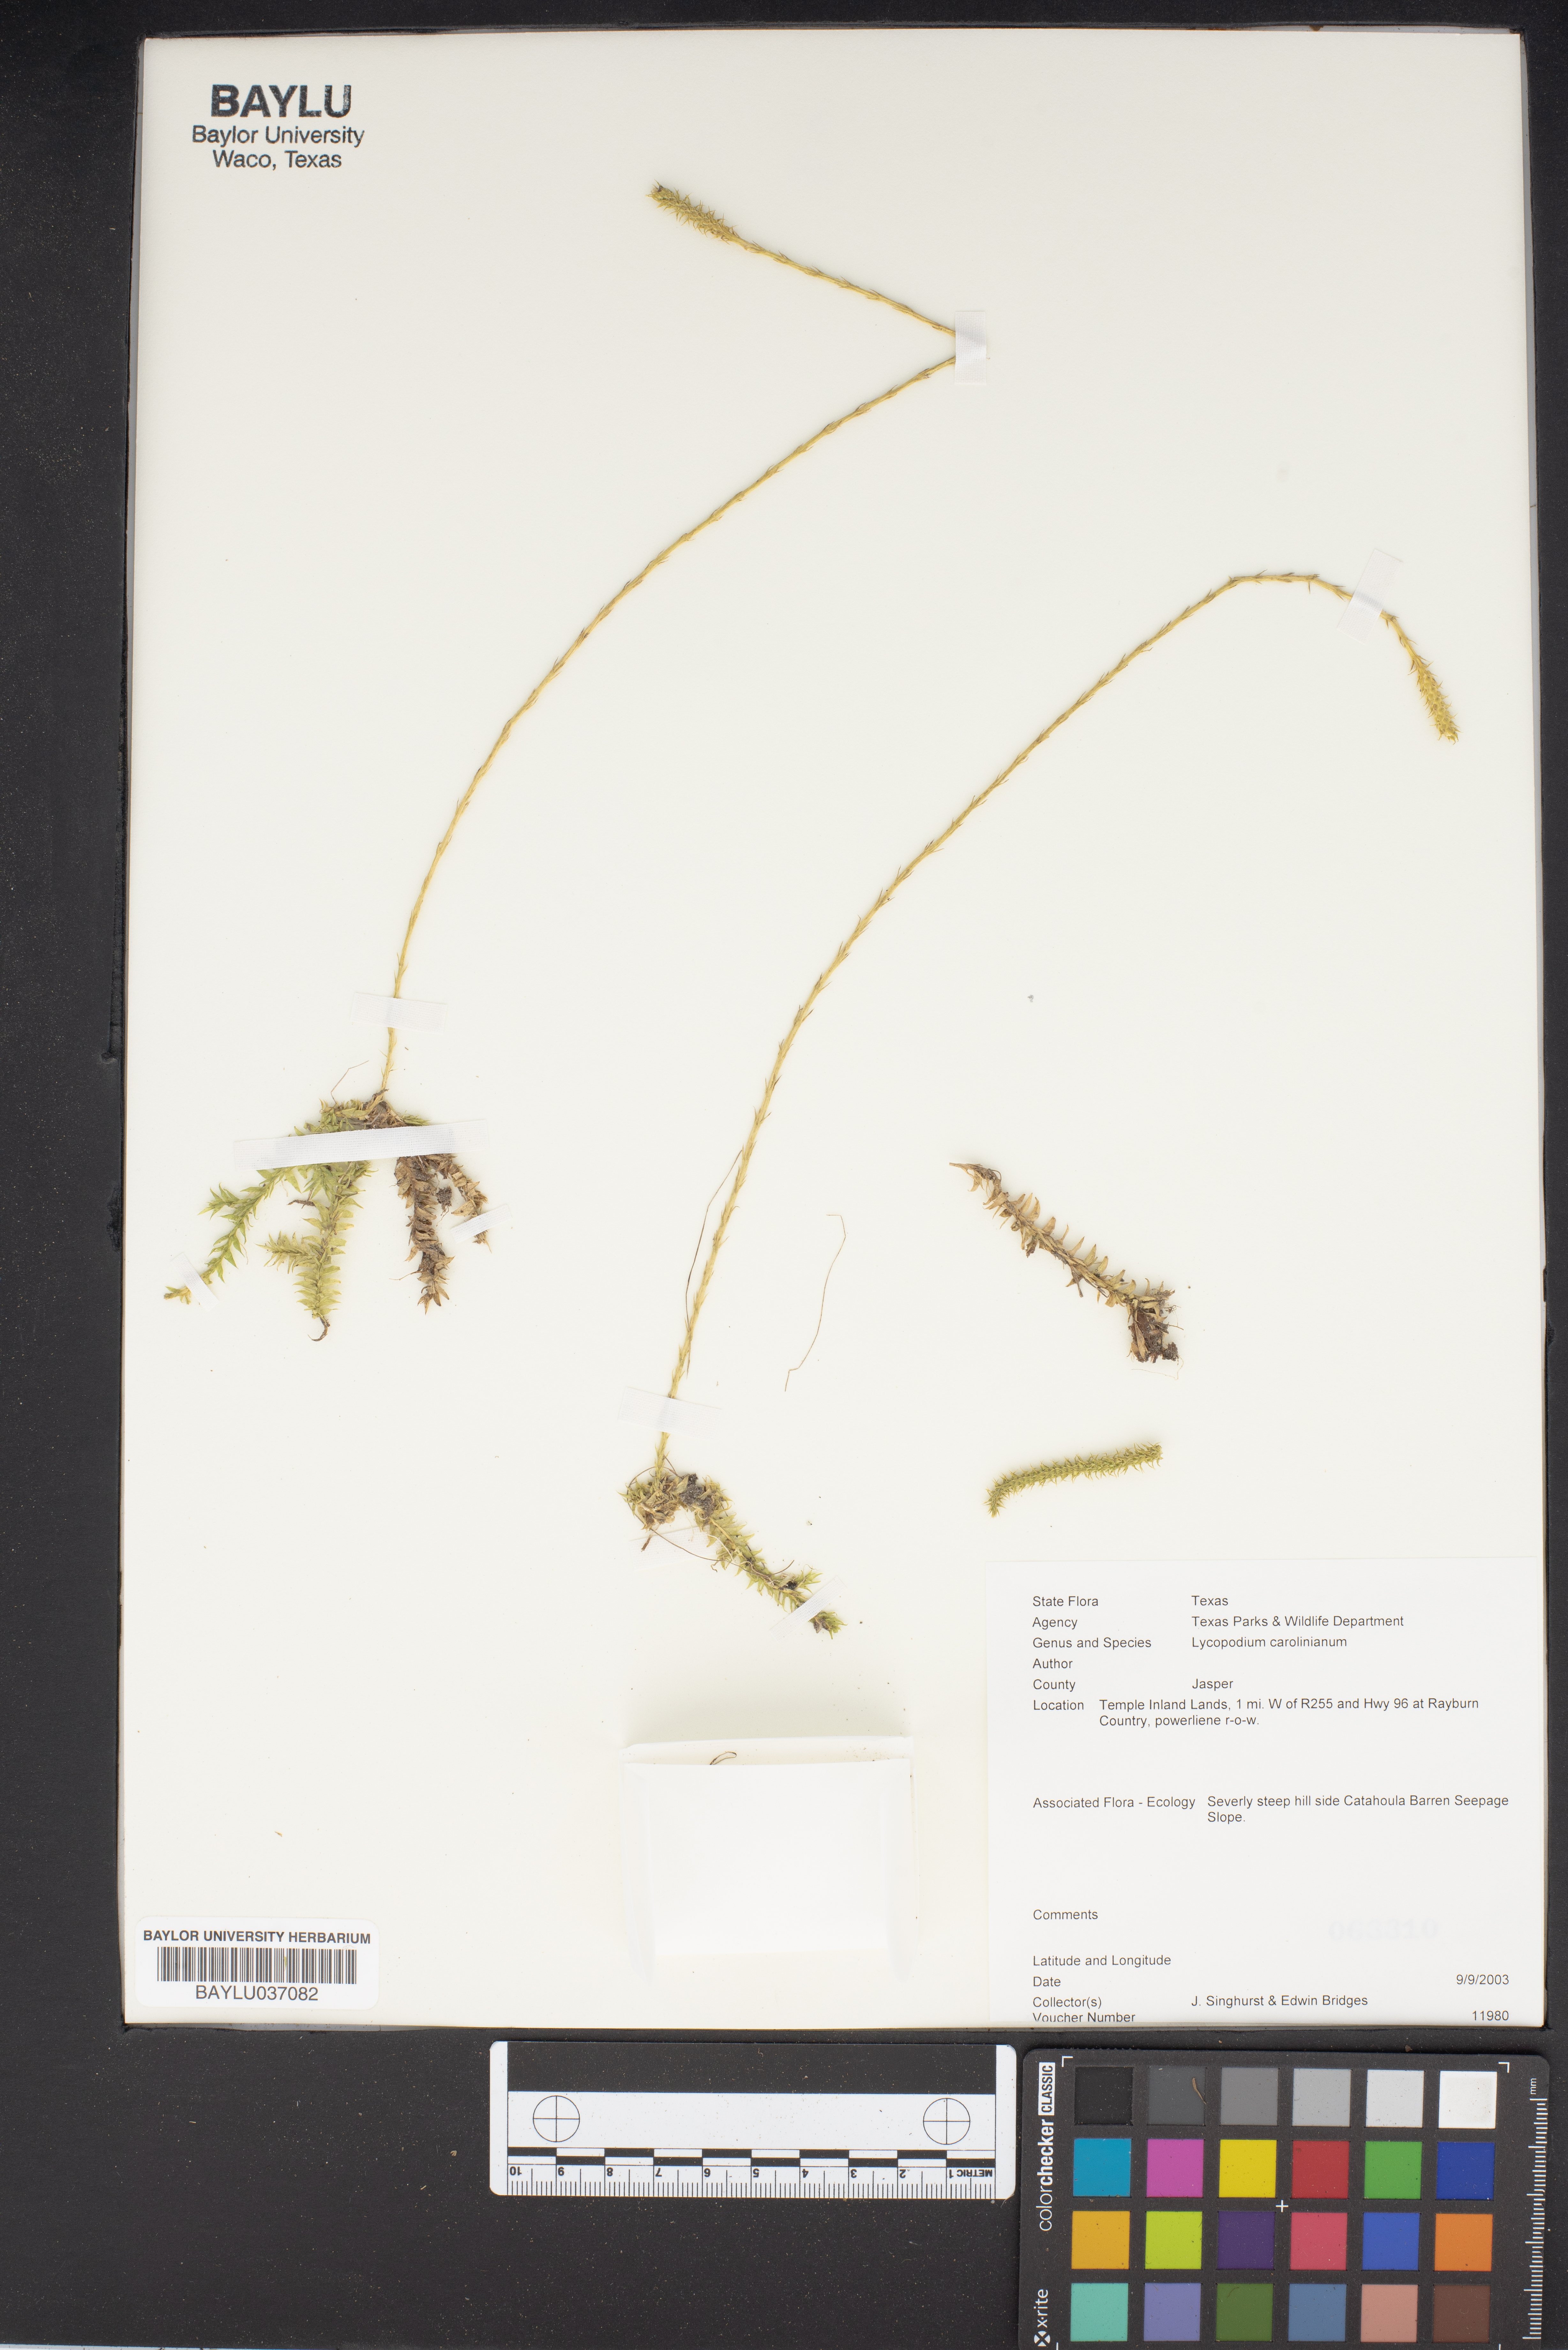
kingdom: Plantae
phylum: Tracheophyta
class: Lycopodiopsida
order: Lycopodiales
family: Lycopodiaceae
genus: Pseudolycopodiella
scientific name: Pseudolycopodiella caroliniana
